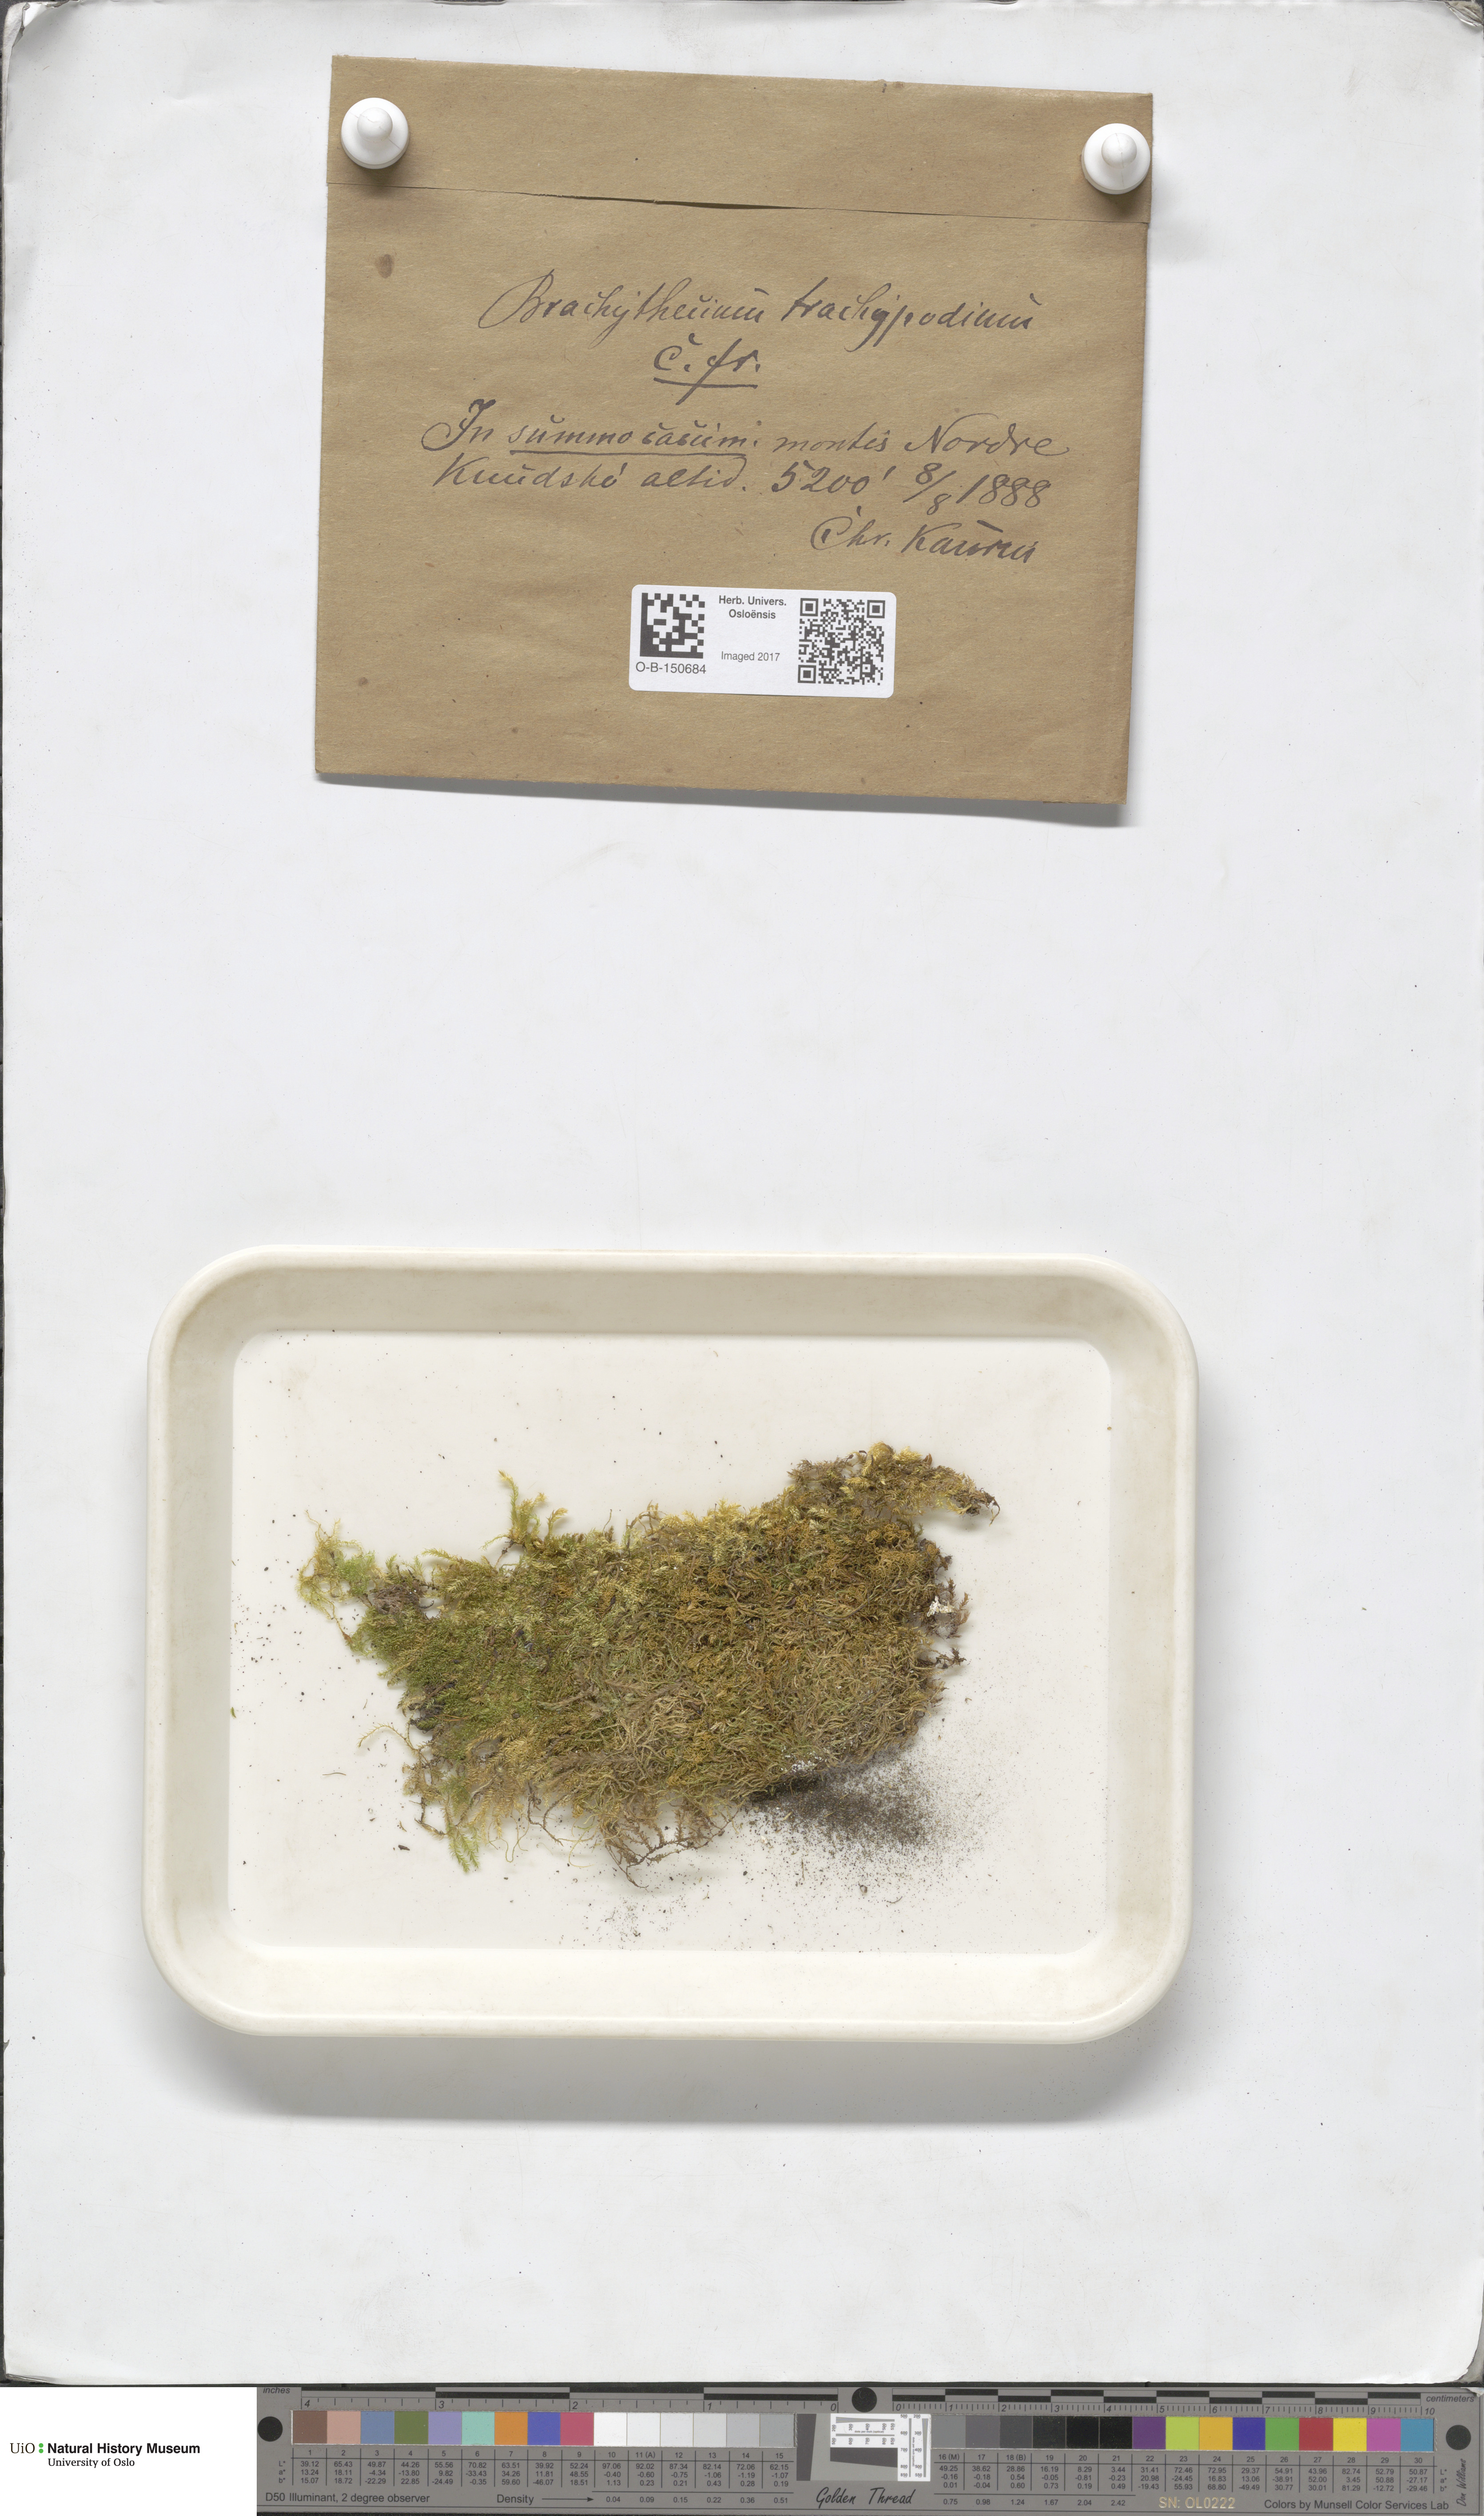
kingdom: Plantae
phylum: Bryophyta
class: Bryopsida
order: Hypnales
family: Brachytheciaceae
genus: Brachytheciastrum
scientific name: Brachytheciastrum trachypodium
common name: Lawers feather-moss
